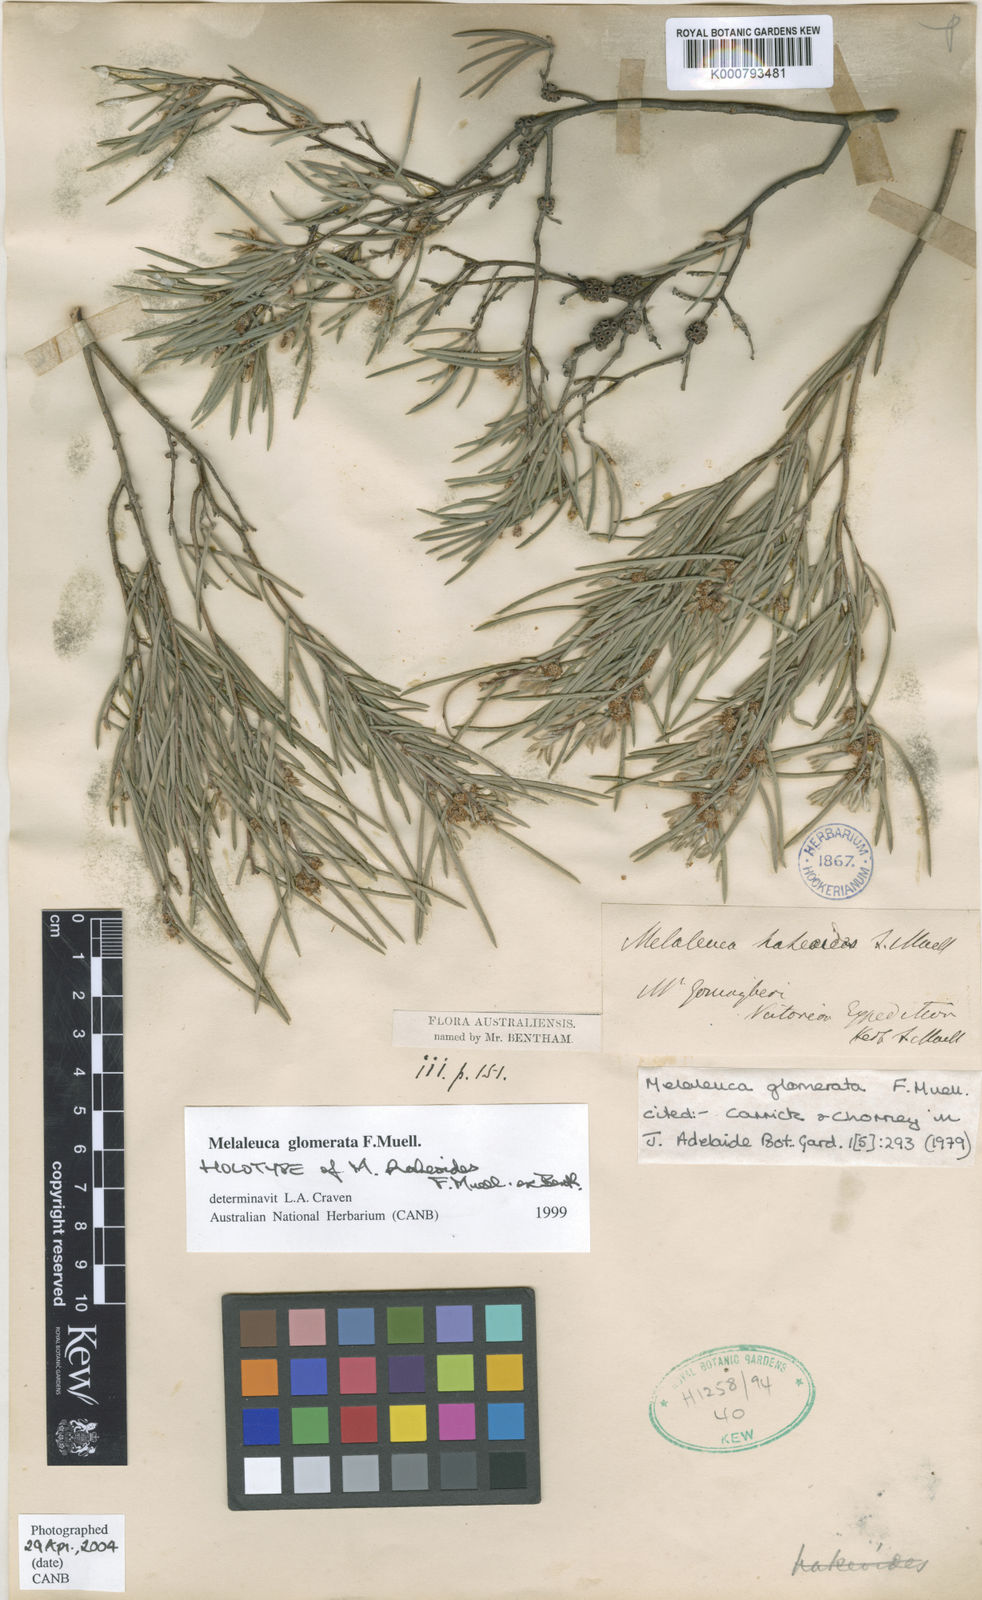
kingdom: Plantae
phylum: Tracheophyta
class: Magnoliopsida
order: Myrtales
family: Myrtaceae
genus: Melaleuca
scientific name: Melaleuca glomerata
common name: Desert honey-myrtle
